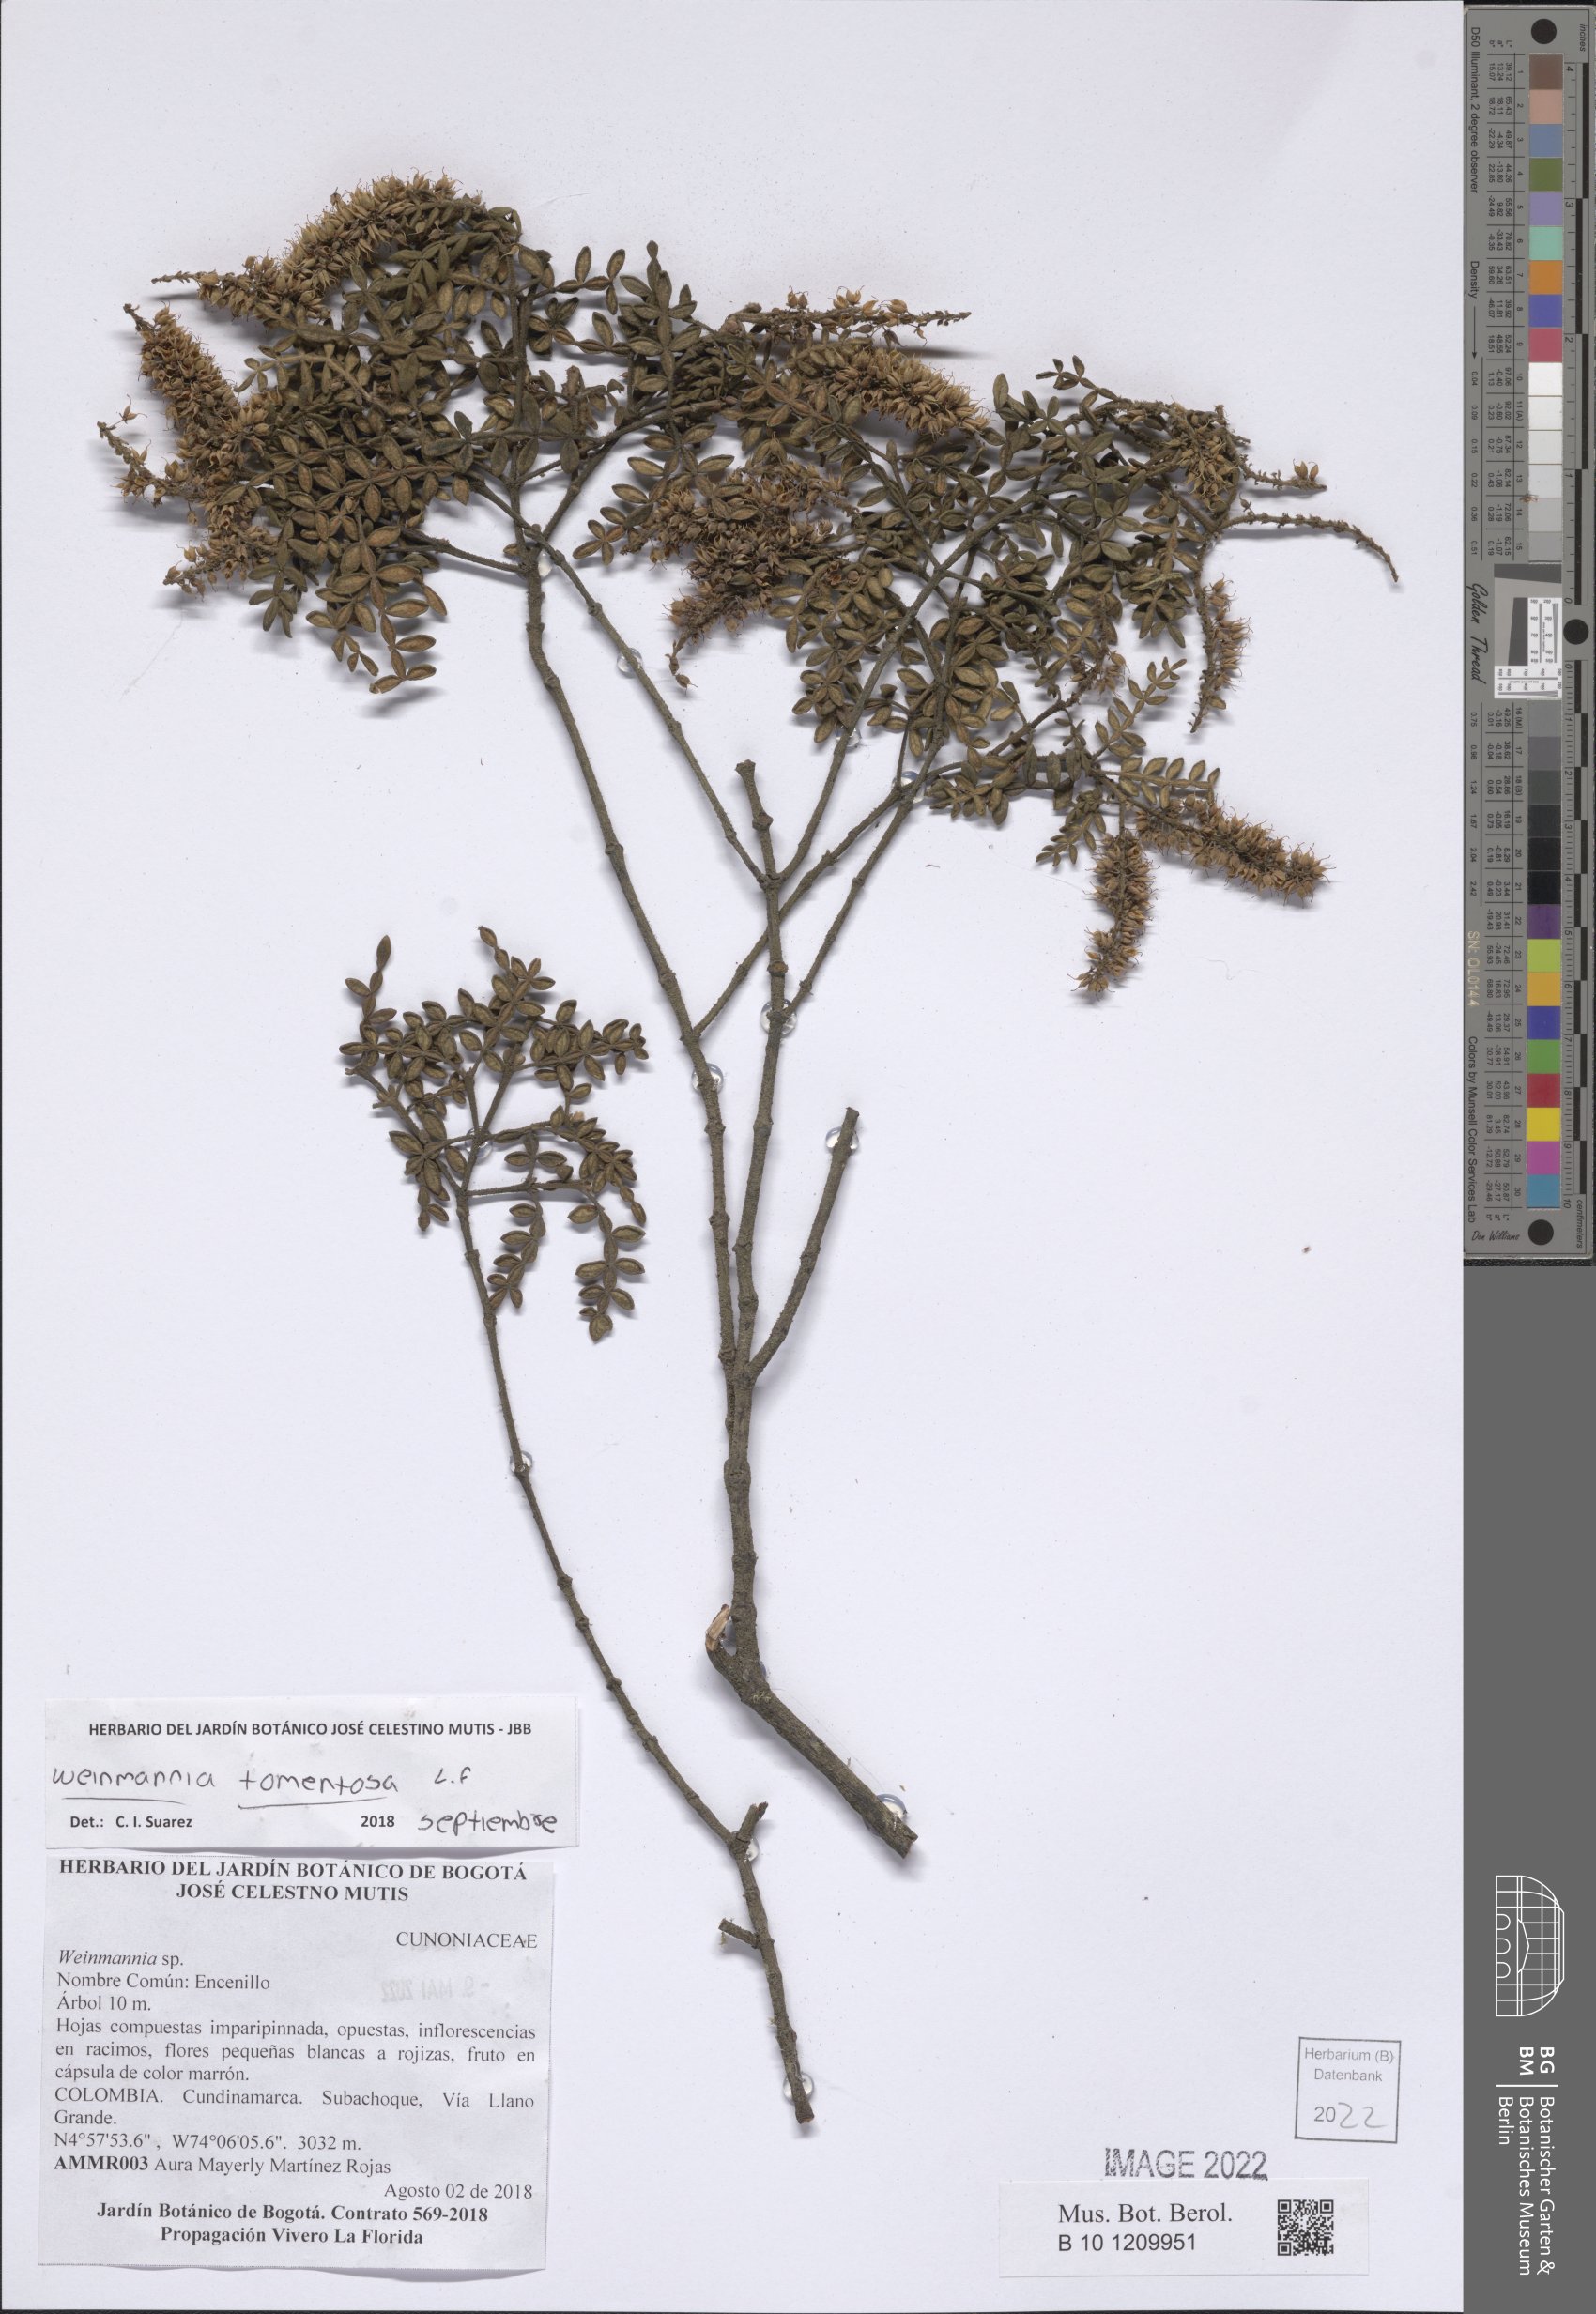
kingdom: Plantae
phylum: Tracheophyta
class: Magnoliopsida
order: Oxalidales
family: Cunoniaceae
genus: Weinmannia
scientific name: Weinmannia tomentosa
